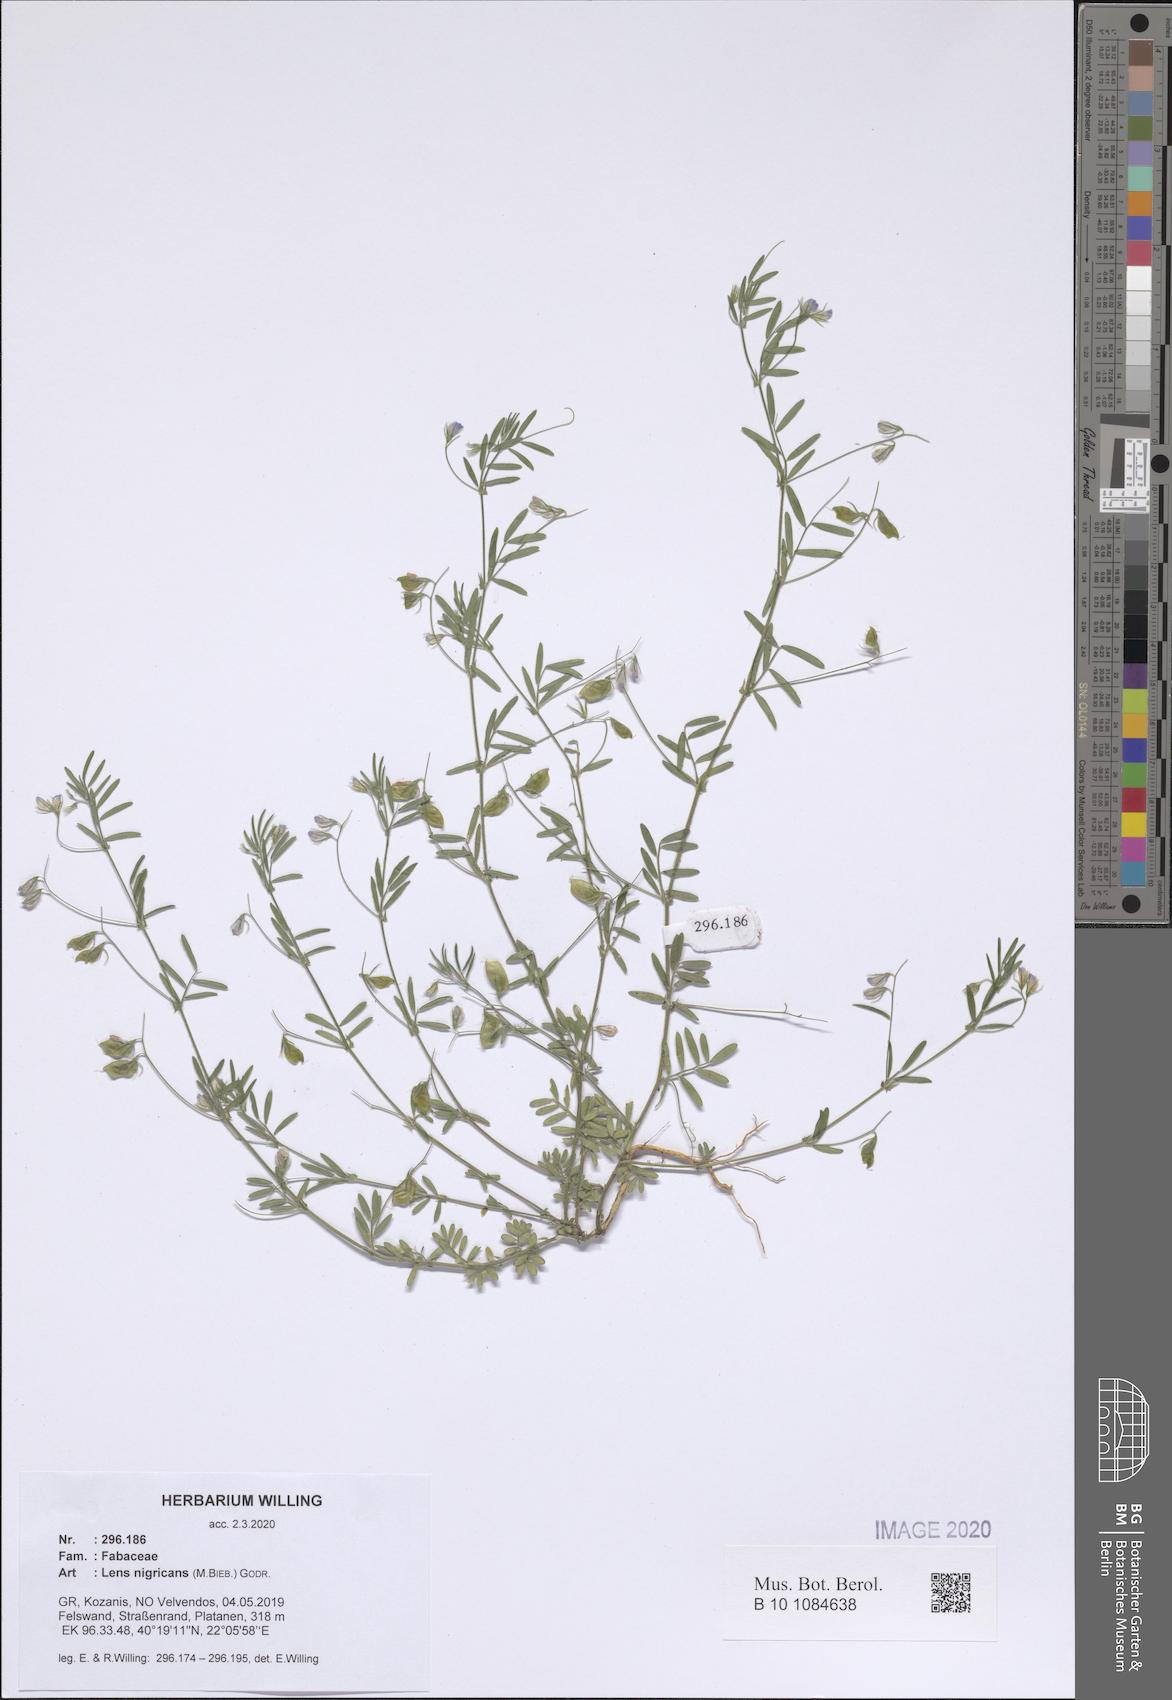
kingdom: Plantae
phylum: Tracheophyta
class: Magnoliopsida
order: Fabales
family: Fabaceae
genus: Vicia
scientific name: Vicia lentoides
